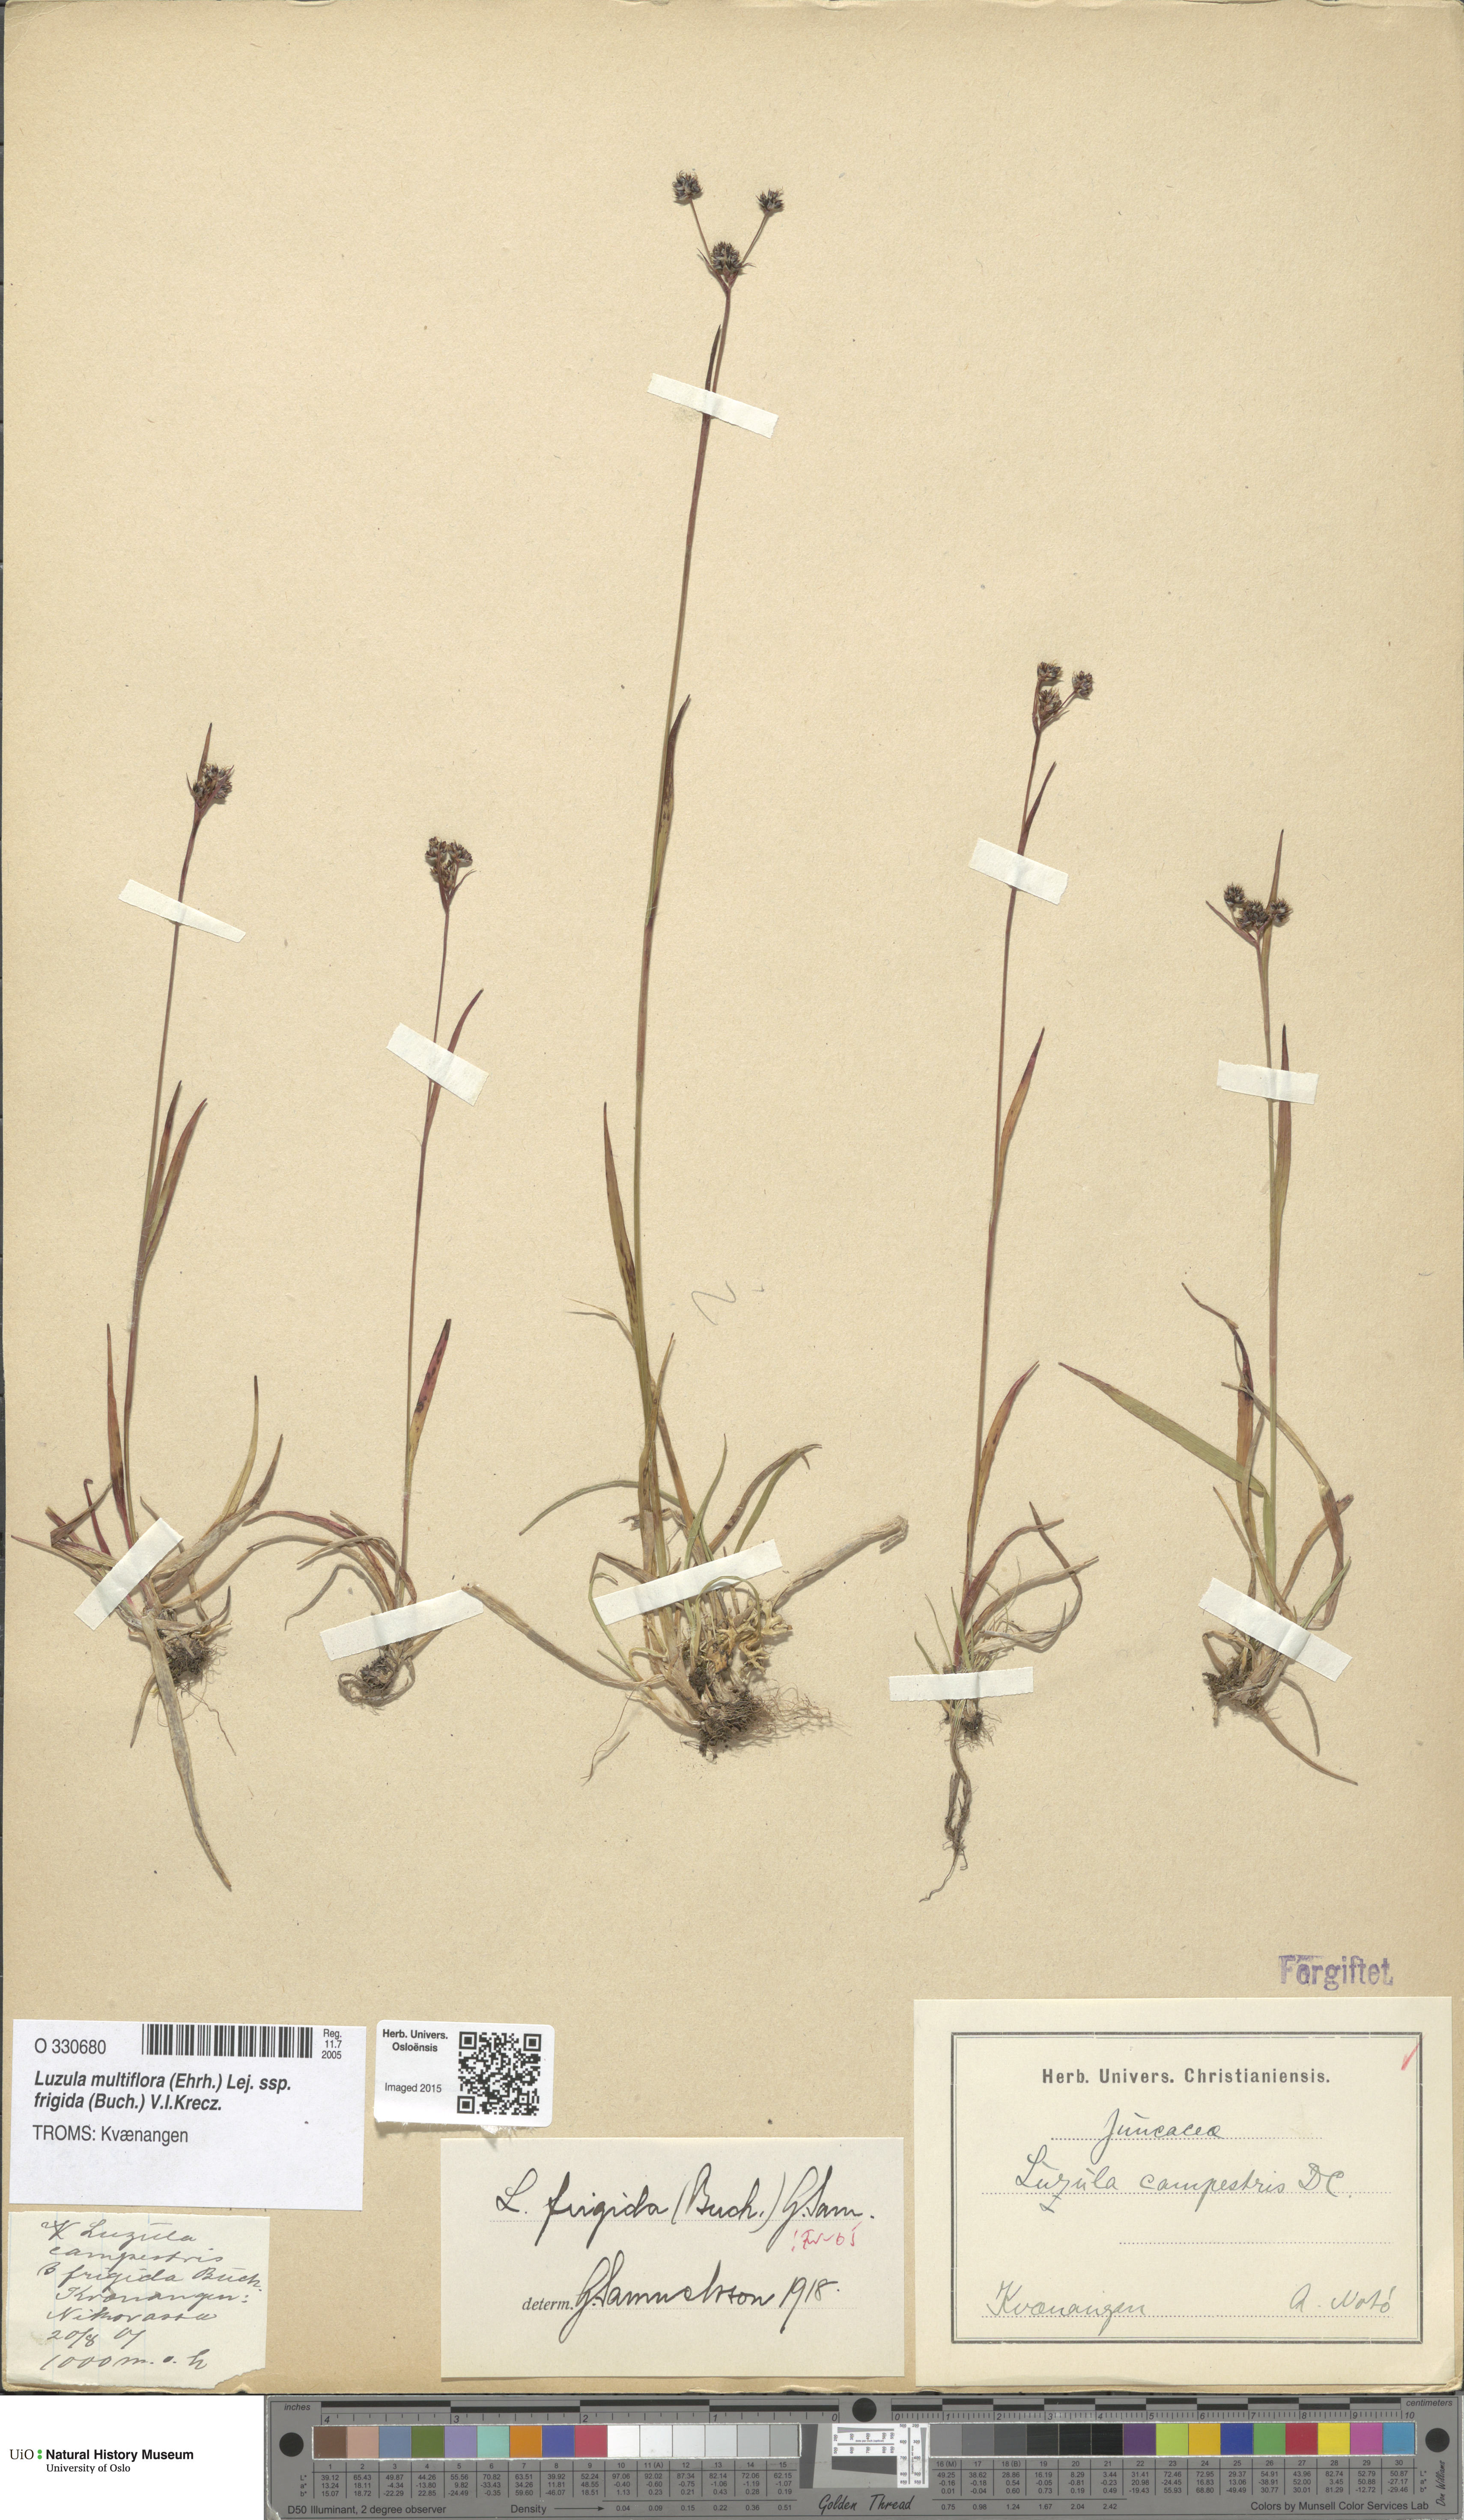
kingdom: Plantae
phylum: Tracheophyta
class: Liliopsida
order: Poales
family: Juncaceae
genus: Luzula
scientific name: Luzula multiflora
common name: Heath wood-rush
